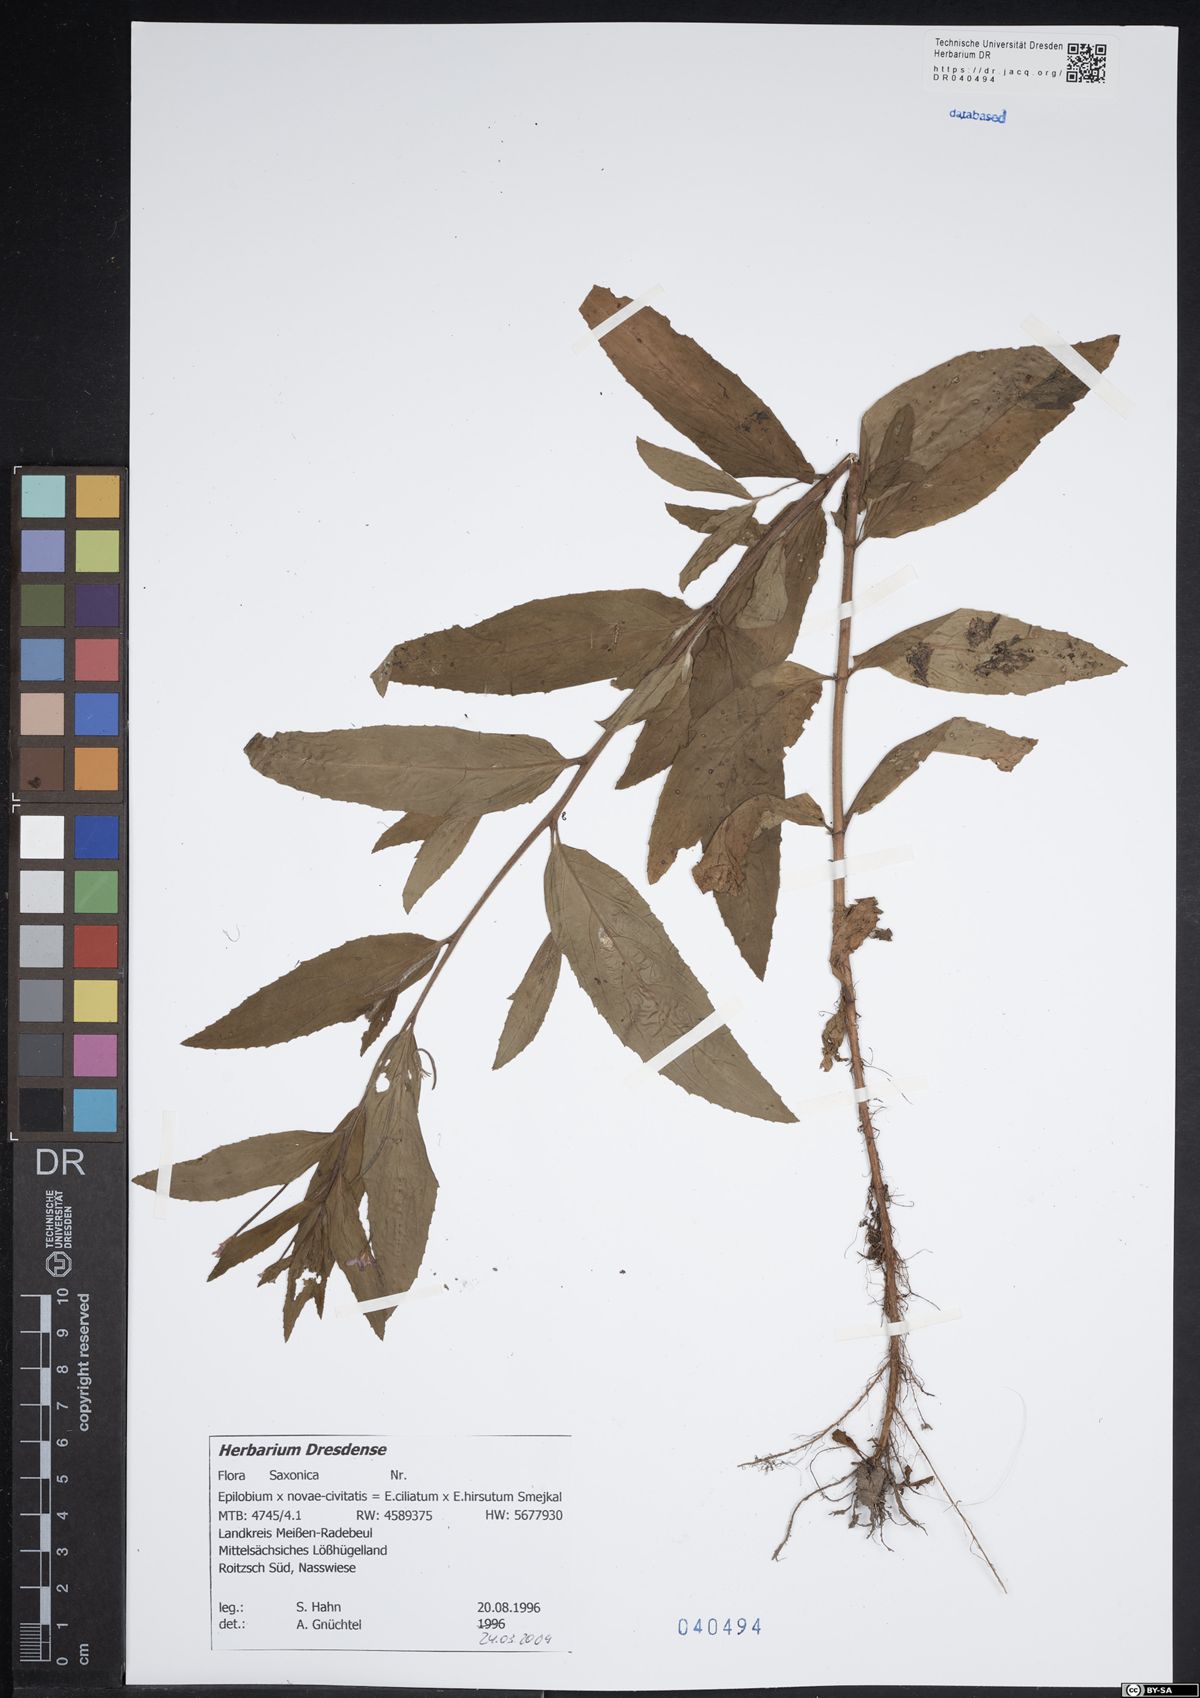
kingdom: Plantae
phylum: Tracheophyta
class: Magnoliopsida
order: Myrtales
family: Onagraceae
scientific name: Onagraceae
